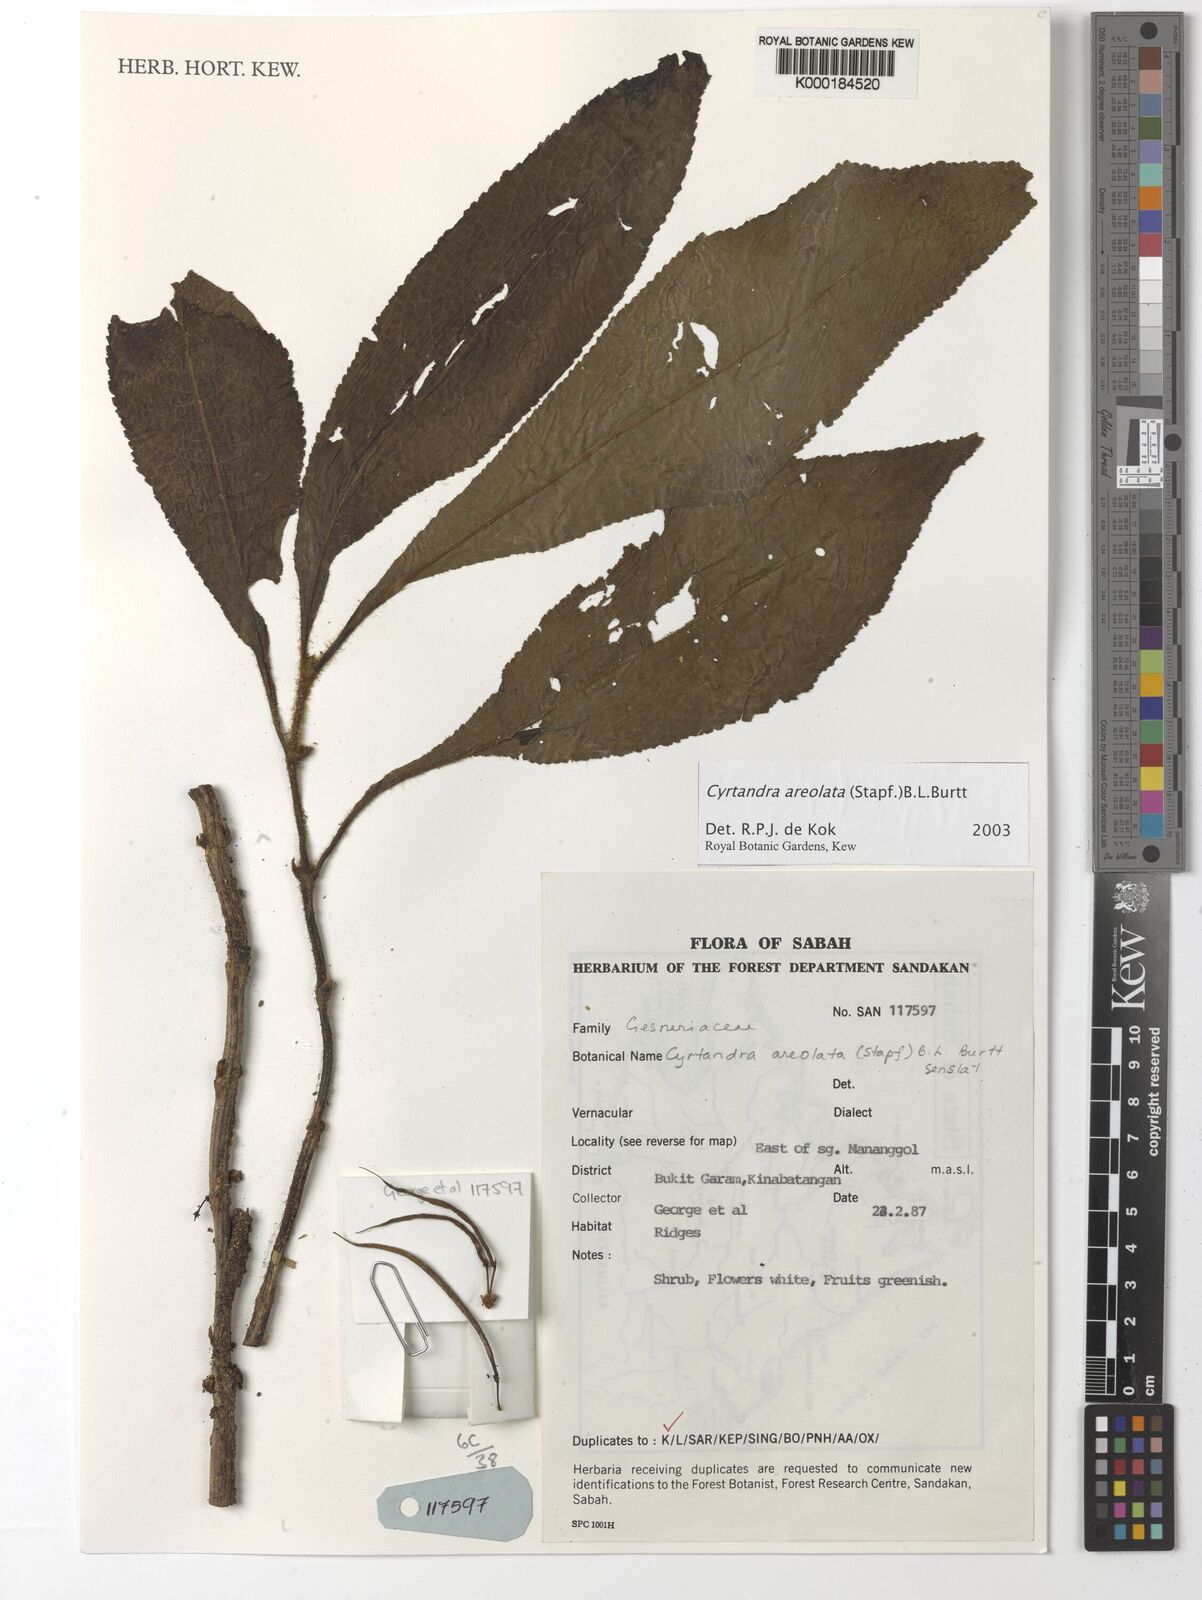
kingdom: Plantae
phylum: Tracheophyta
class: Magnoliopsida
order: Lamiales
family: Gesneriaceae
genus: Cyrtandra
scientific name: Cyrtandra areolata
